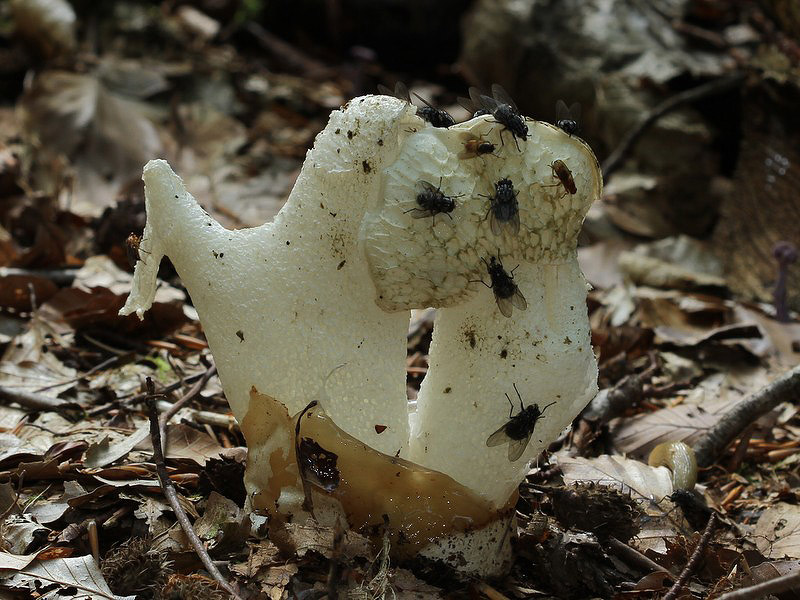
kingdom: Fungi
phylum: Basidiomycota
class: Agaricomycetes
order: Phallales
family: Phallaceae
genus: Phallus
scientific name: Phallus impudicus
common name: almindelig stinksvamp
